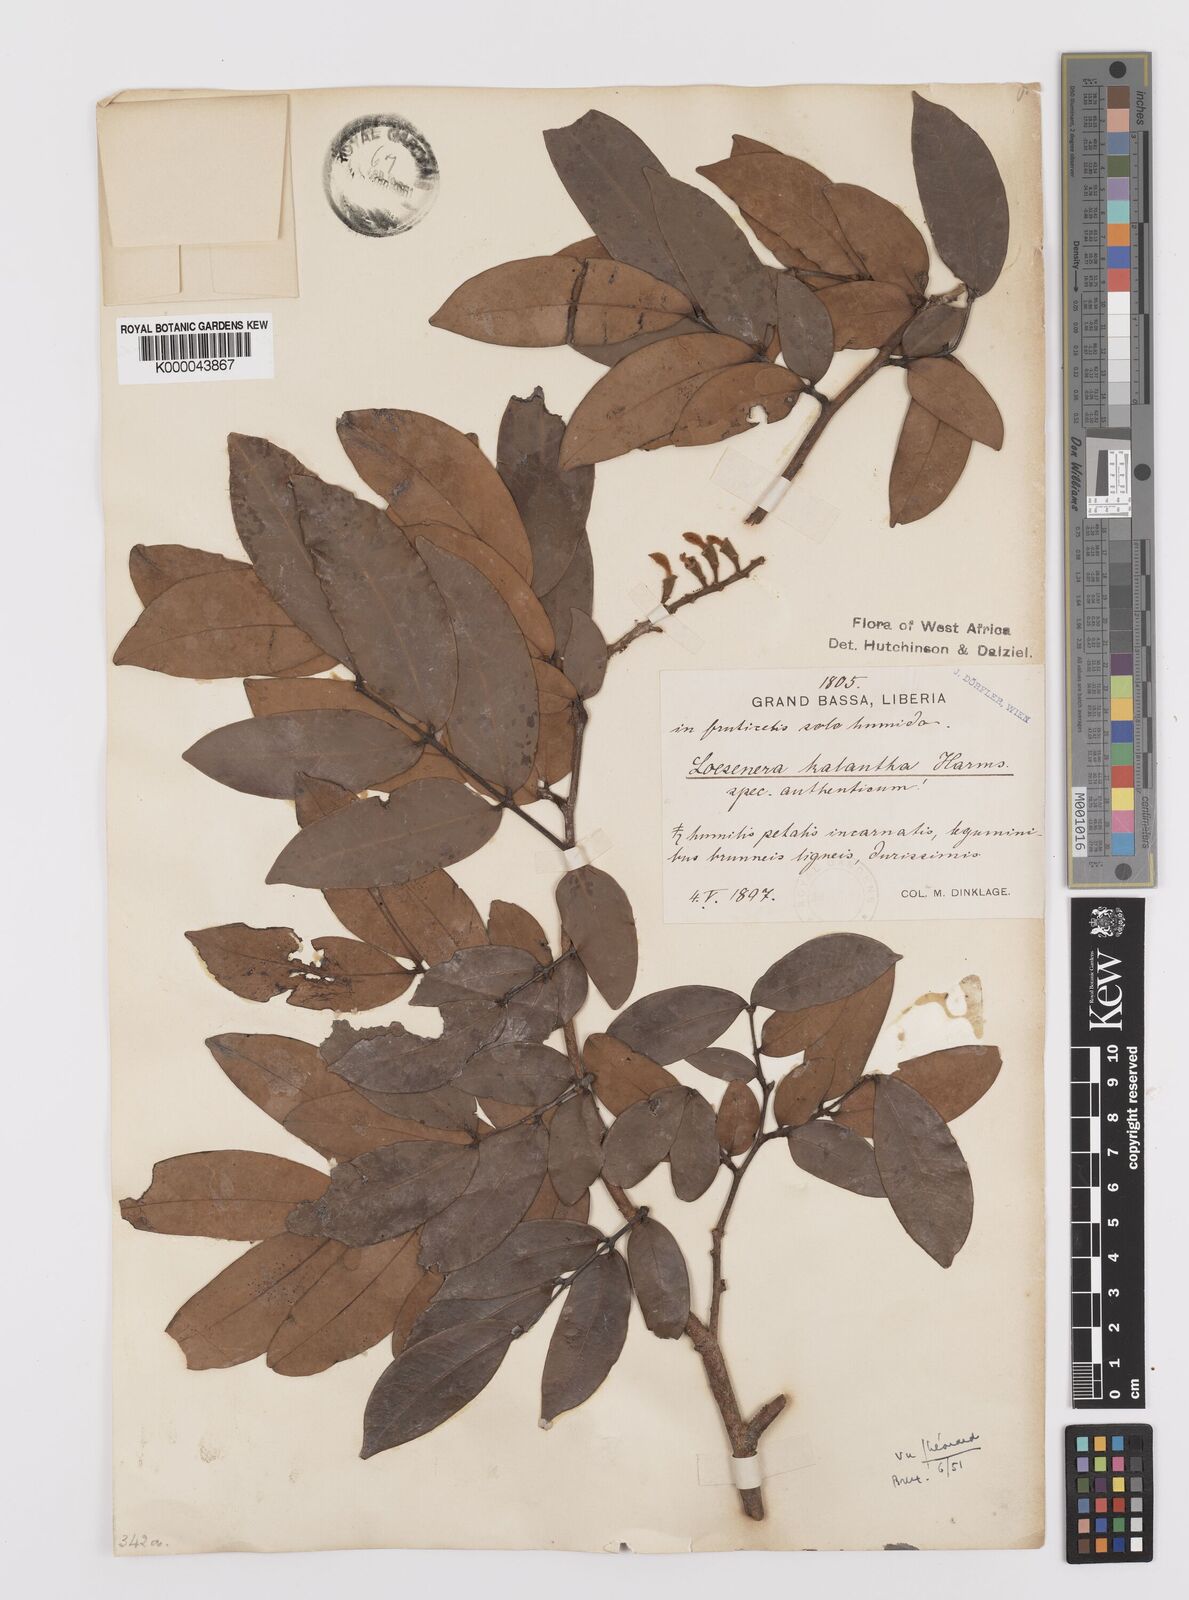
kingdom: Plantae
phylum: Tracheophyta
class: Magnoliopsida
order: Fabales
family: Fabaceae
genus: Loesenera
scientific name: Loesenera kalantha
